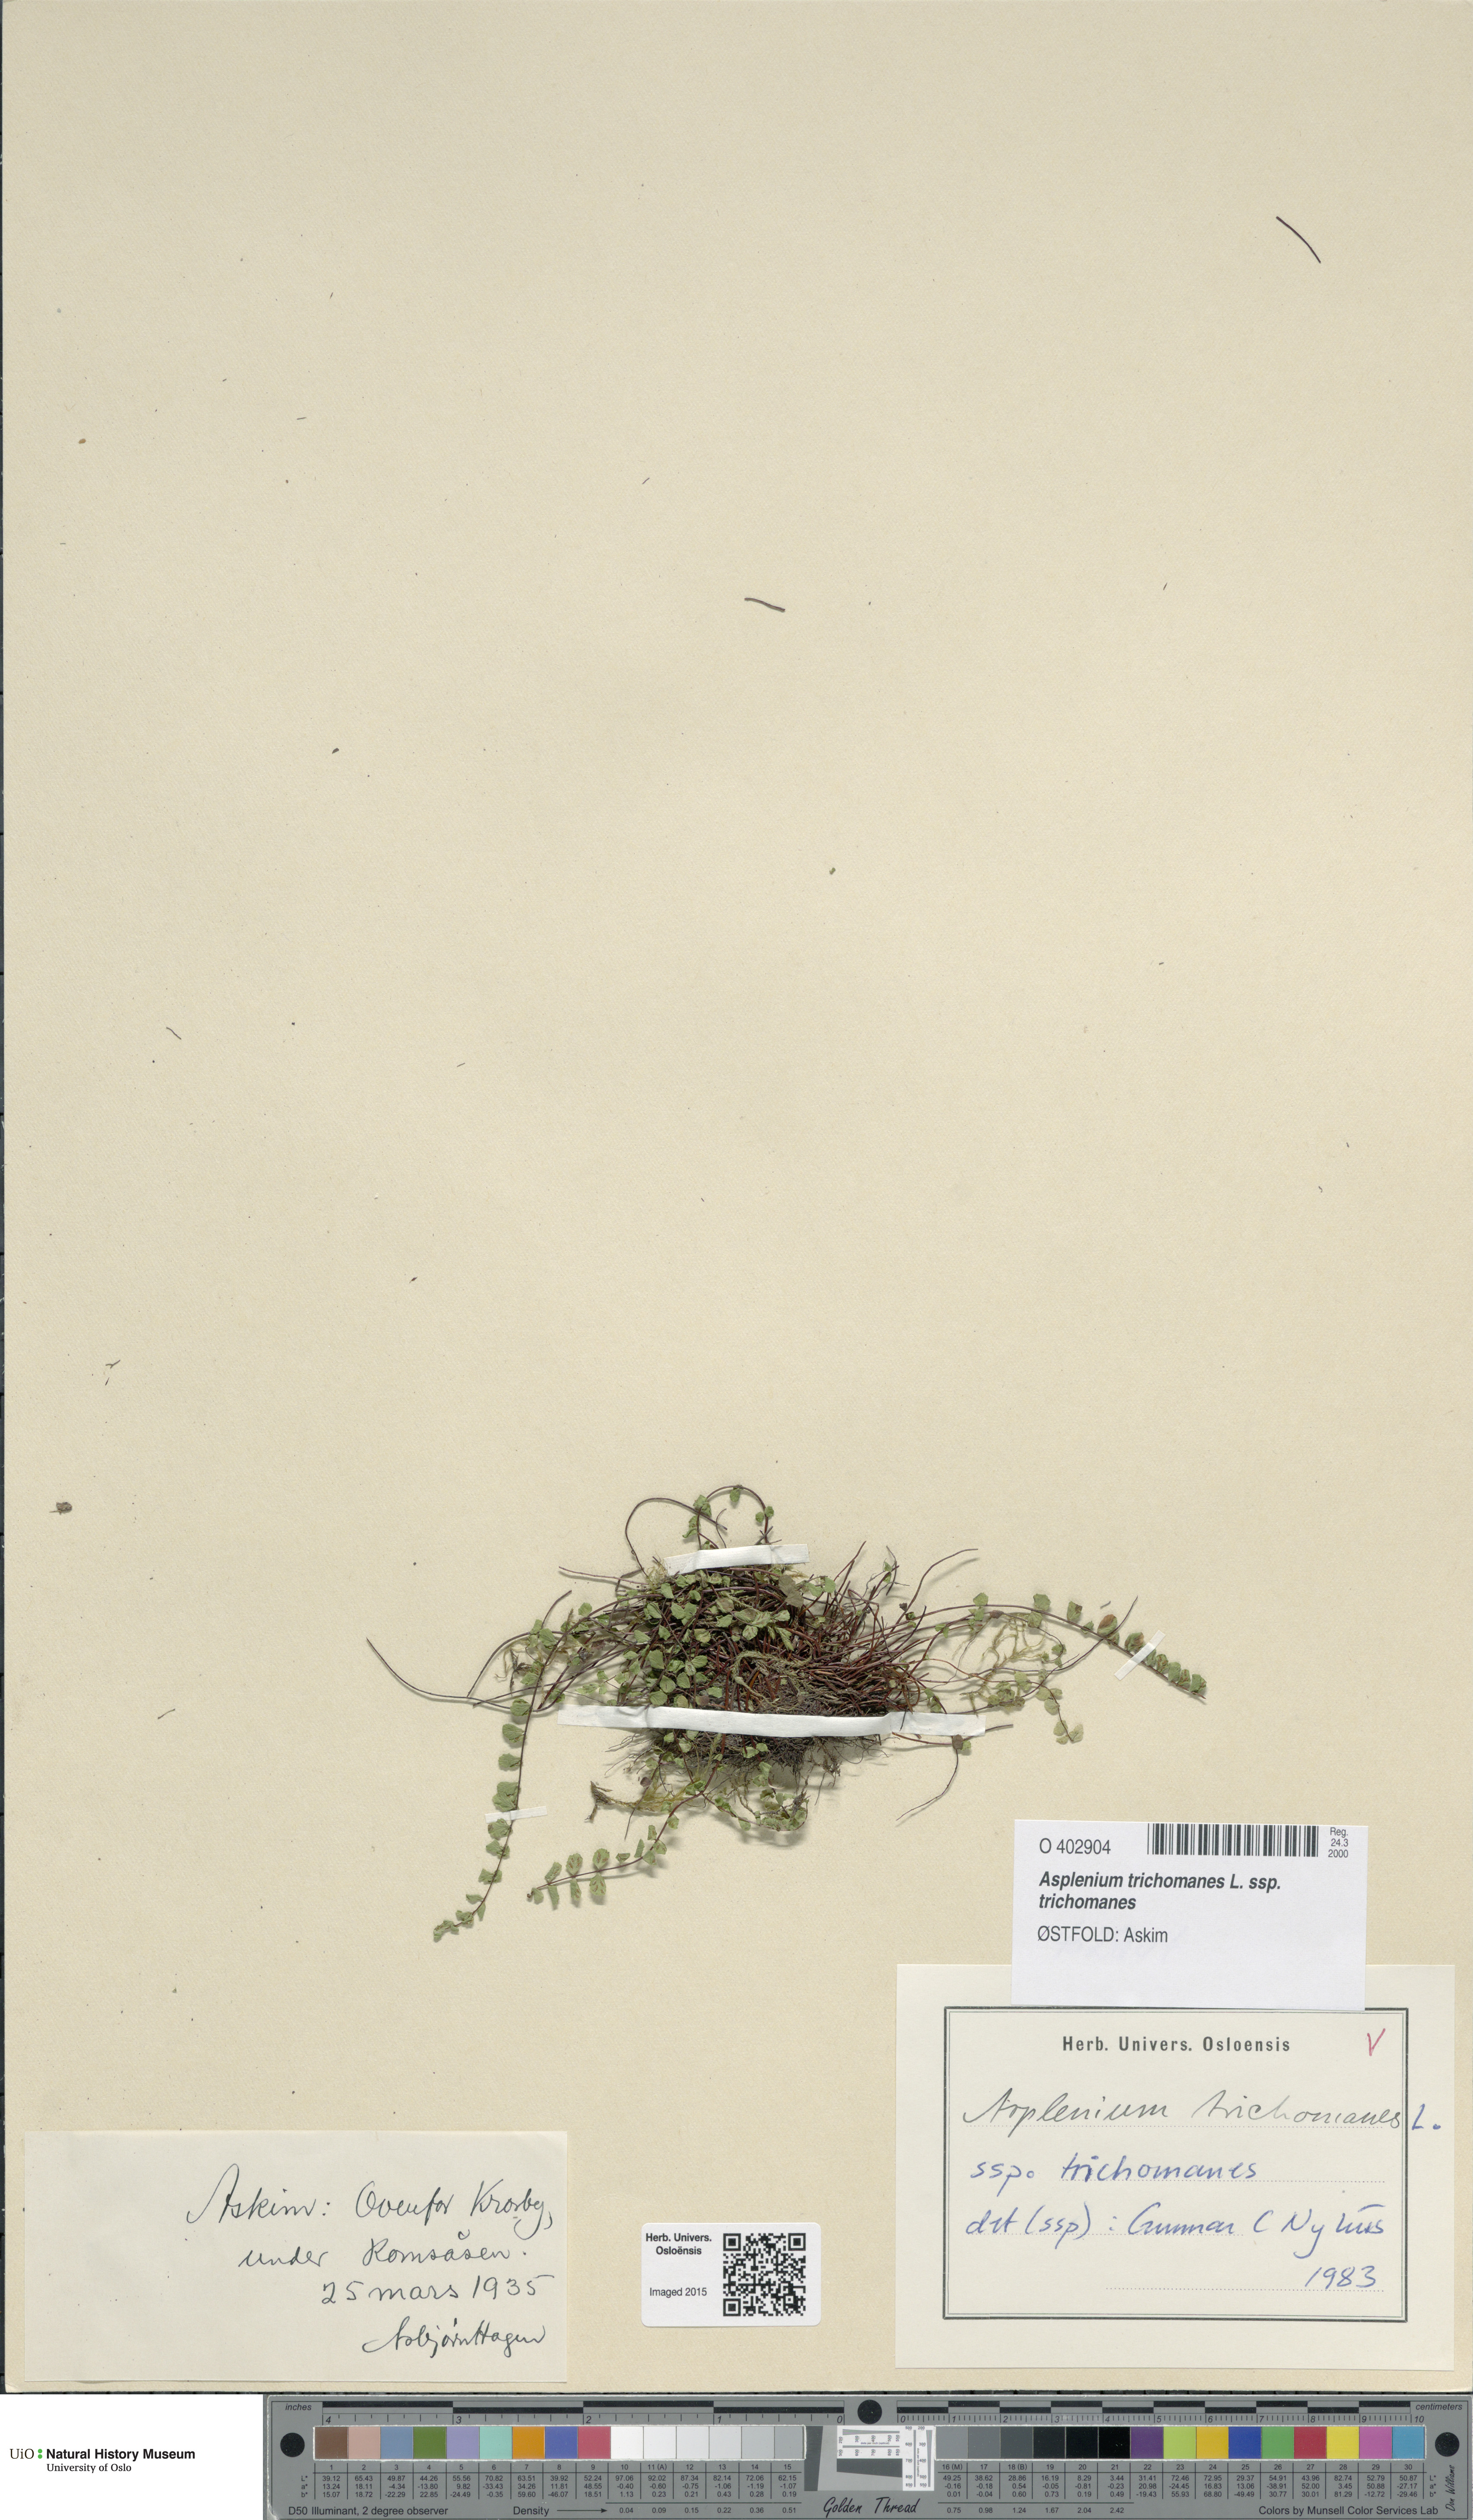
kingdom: Plantae
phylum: Tracheophyta
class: Polypodiopsida
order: Polypodiales
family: Aspleniaceae
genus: Asplenium
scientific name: Asplenium trichomanes
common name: Maidenhair spleenwort
